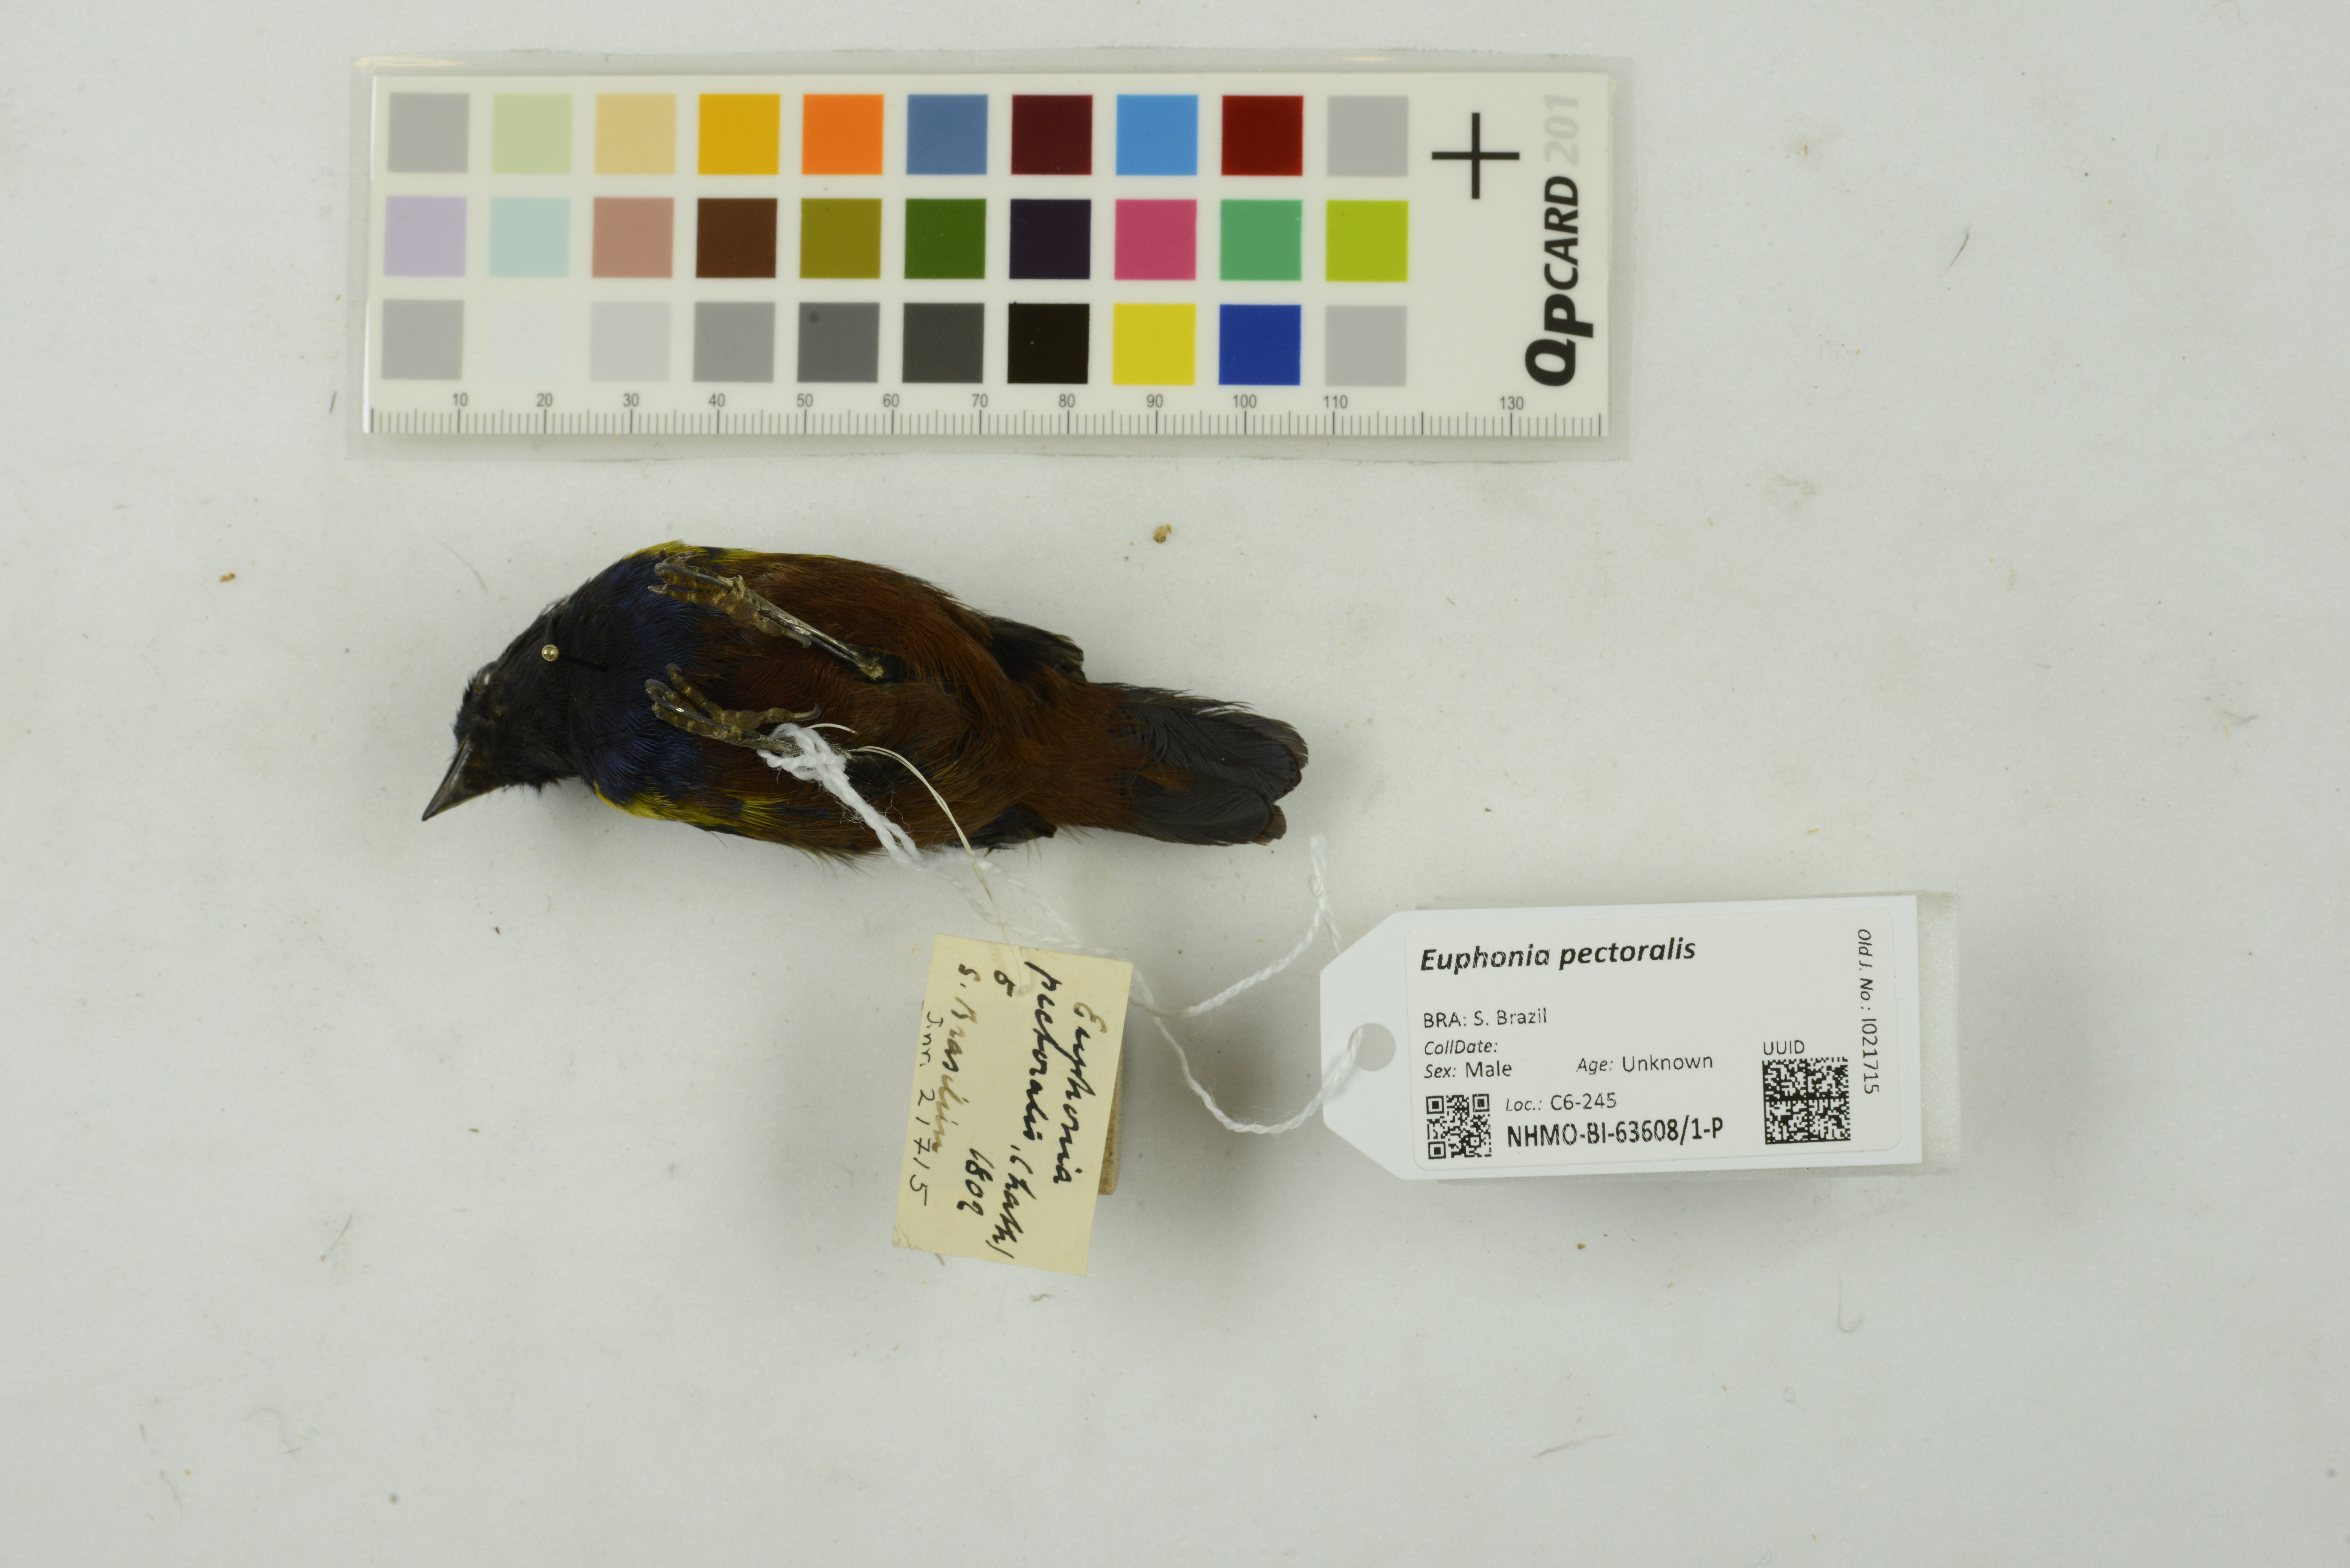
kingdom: Animalia
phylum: Chordata
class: Aves
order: Passeriformes
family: Fringillidae
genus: Euphonia
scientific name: Euphonia pectoralis
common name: Chestnut-bellied euphonia
